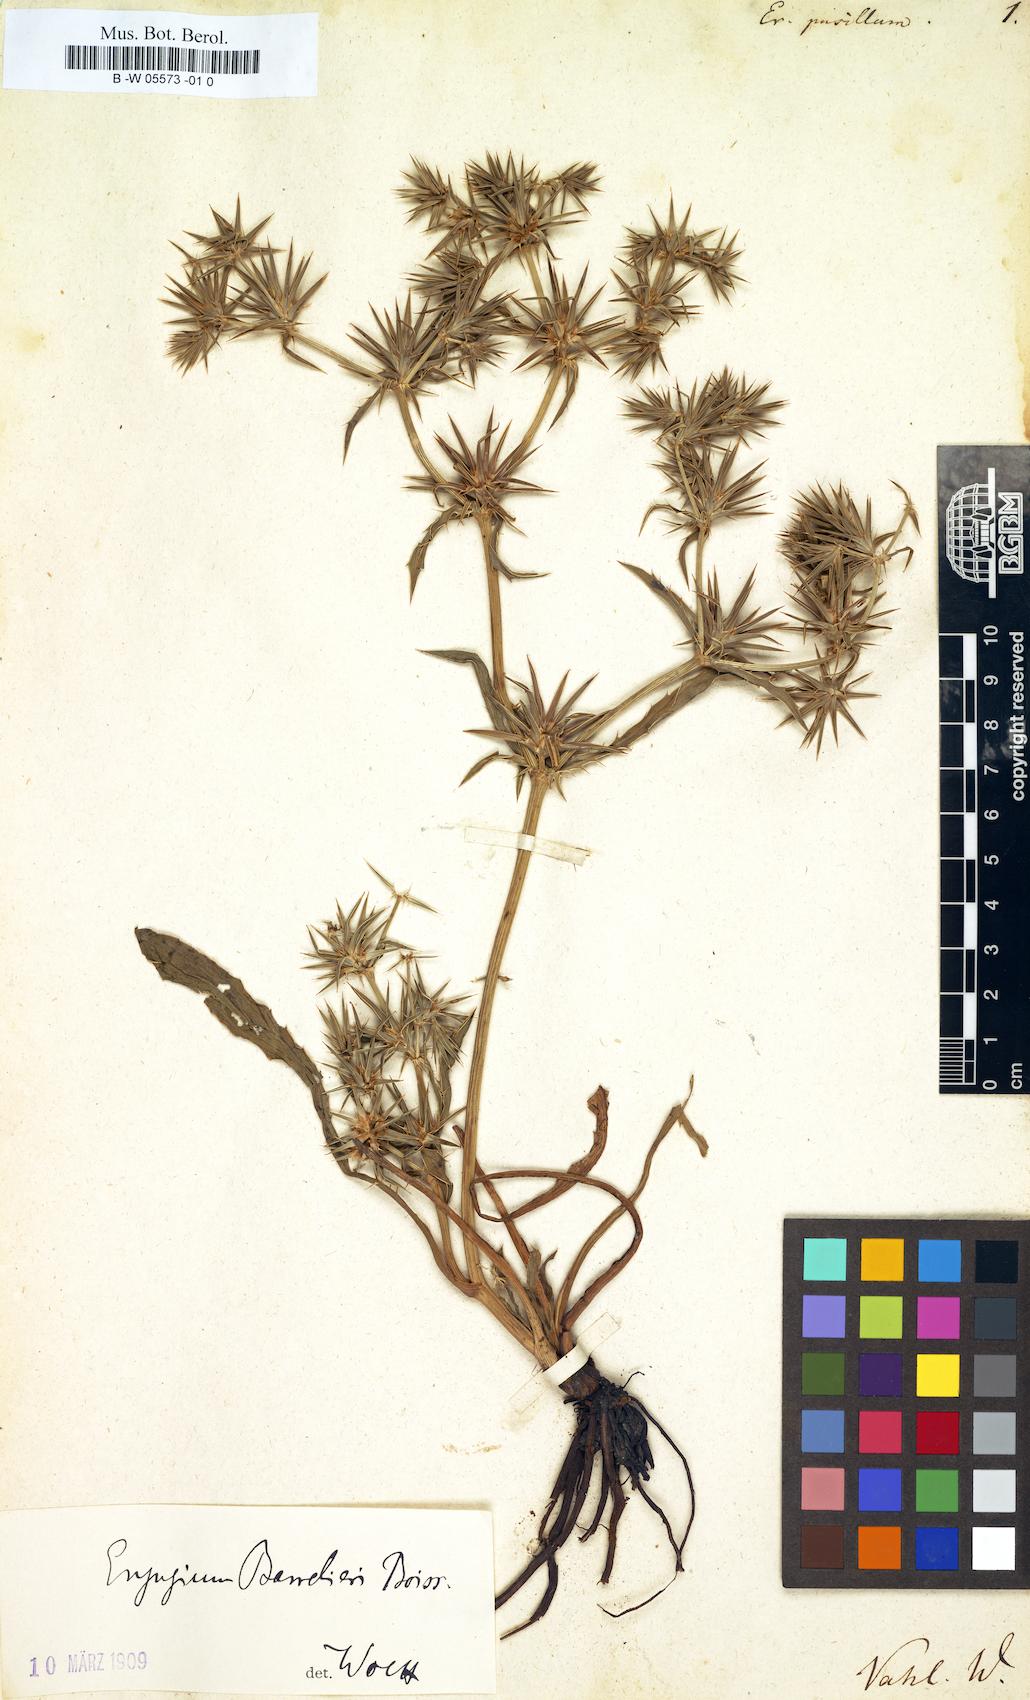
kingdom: Plantae
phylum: Tracheophyta
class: Magnoliopsida
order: Apiales
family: Apiaceae
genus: Eryngium
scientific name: Eryngium pusillum
